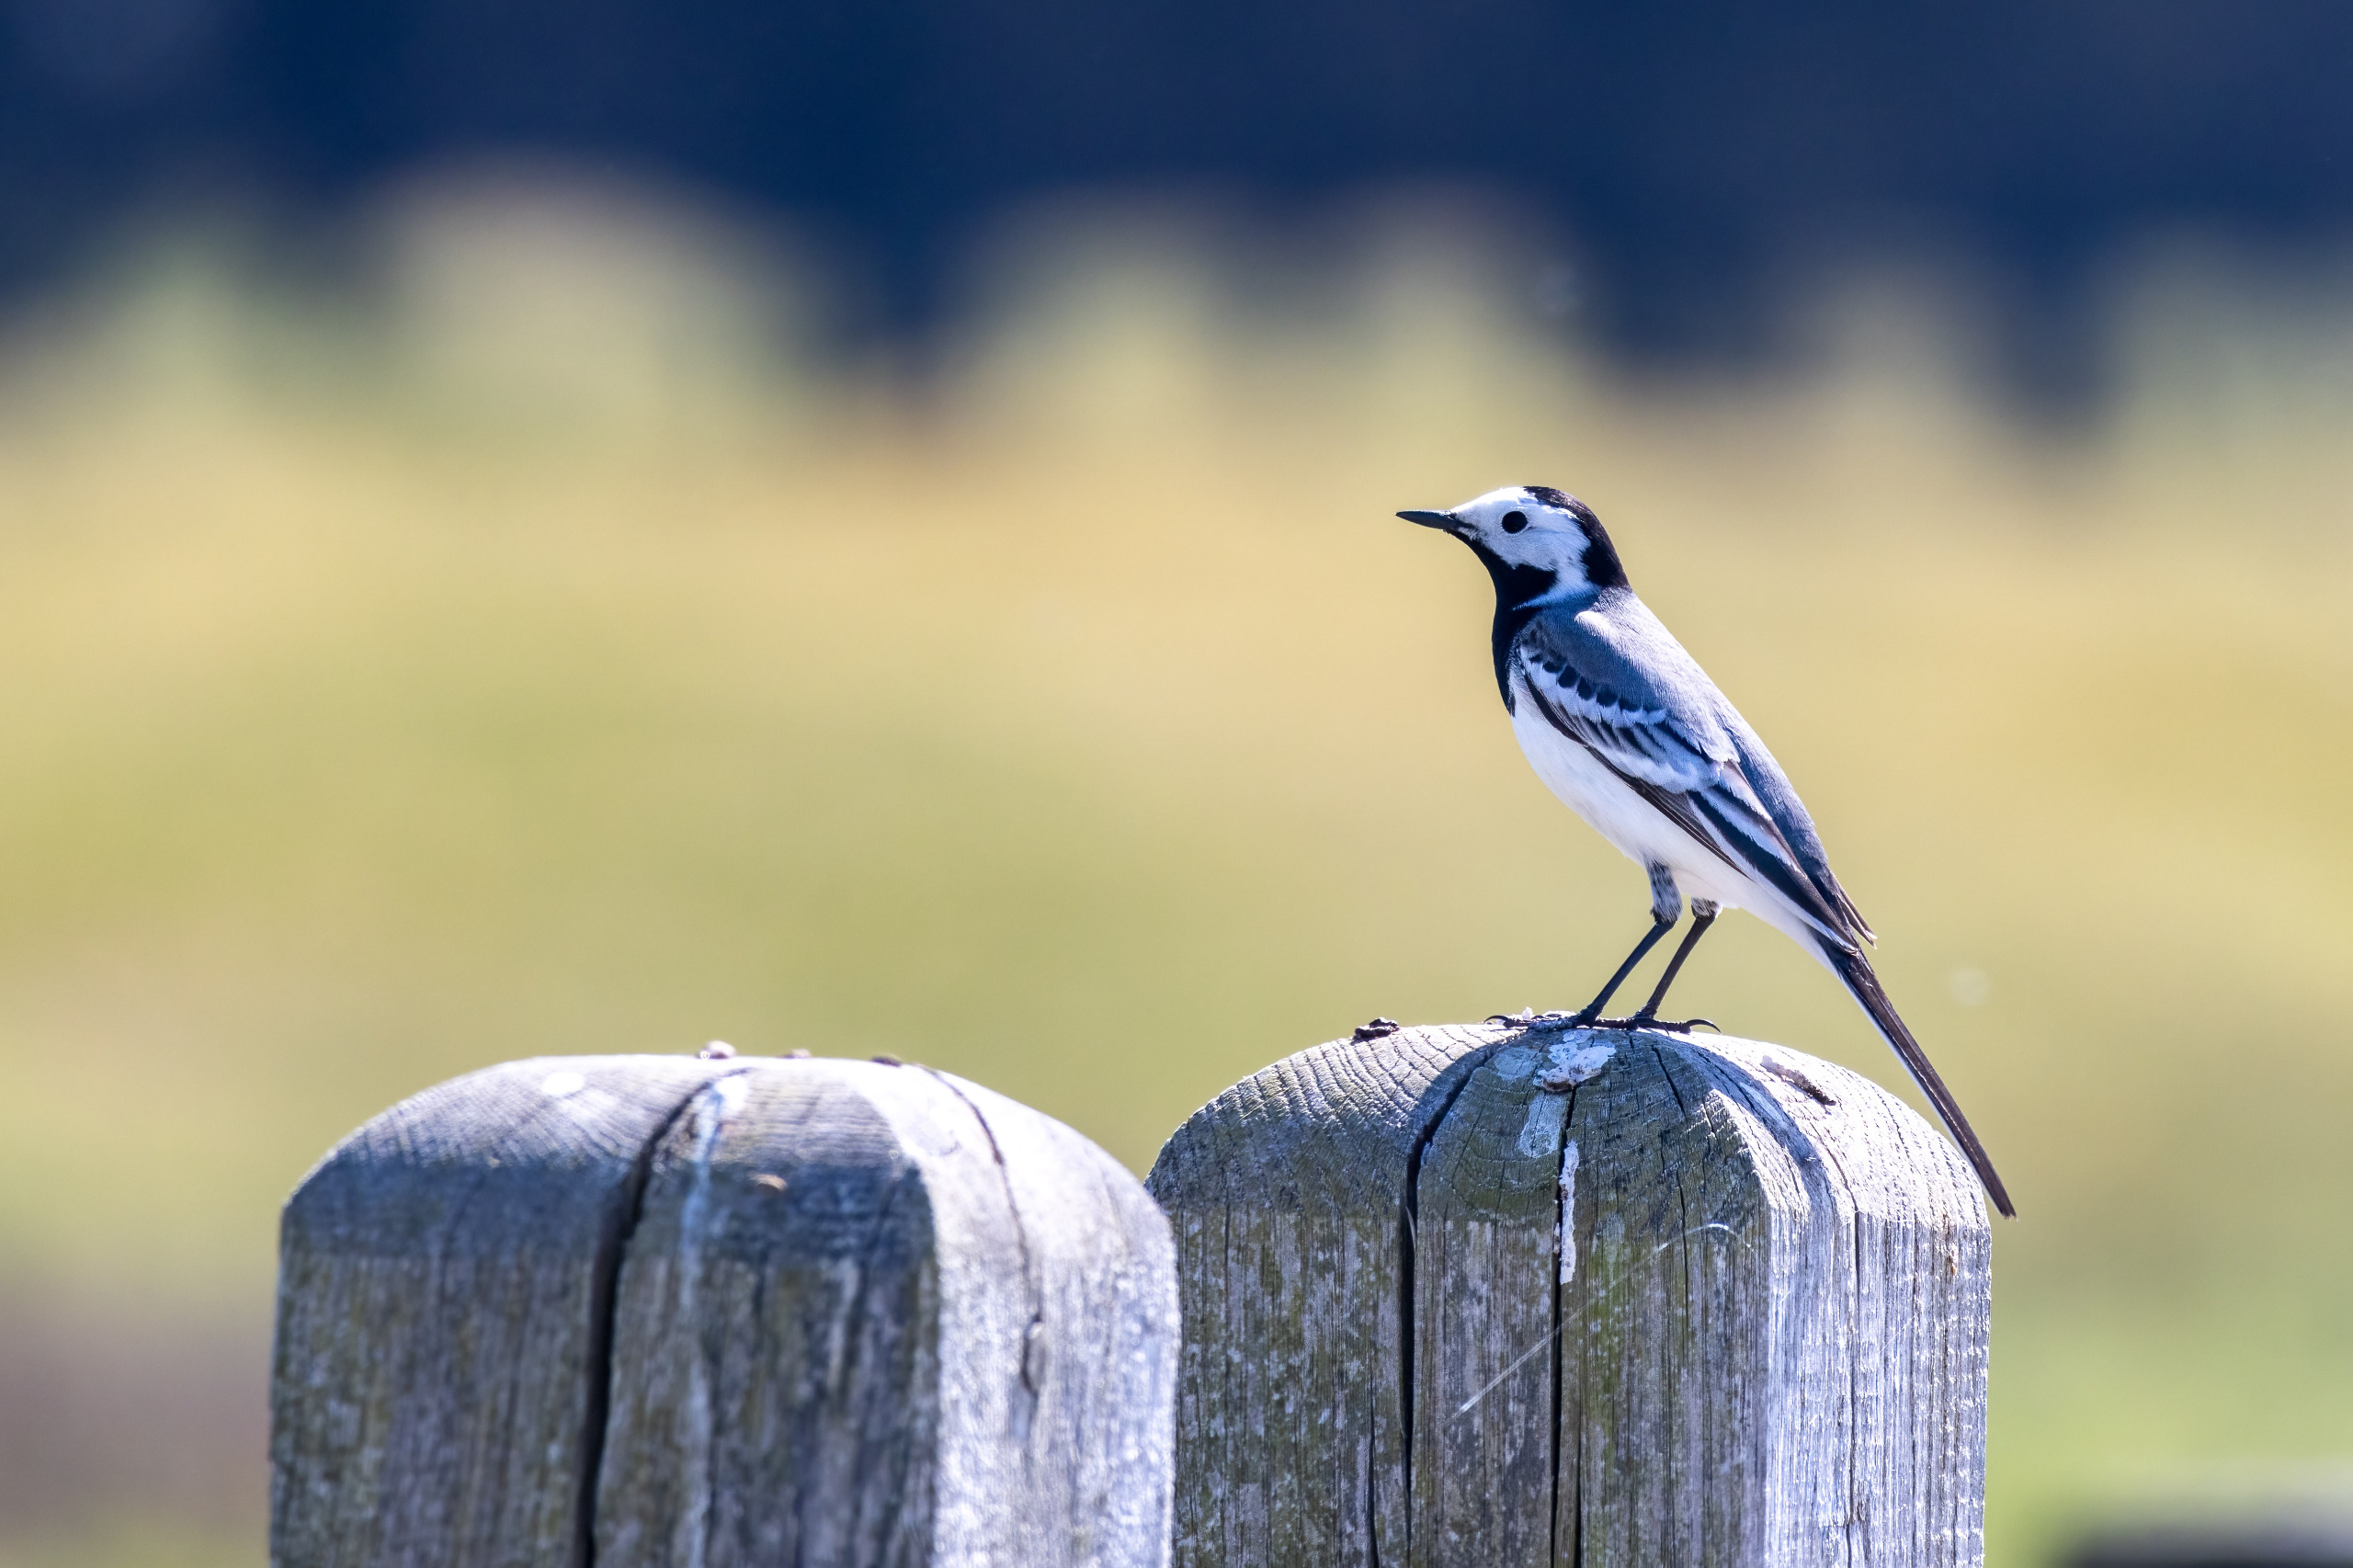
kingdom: Animalia
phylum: Chordata
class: Aves
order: Passeriformes
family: Motacillidae
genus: Motacilla
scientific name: Motacilla alba
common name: Hvid vipstjert
